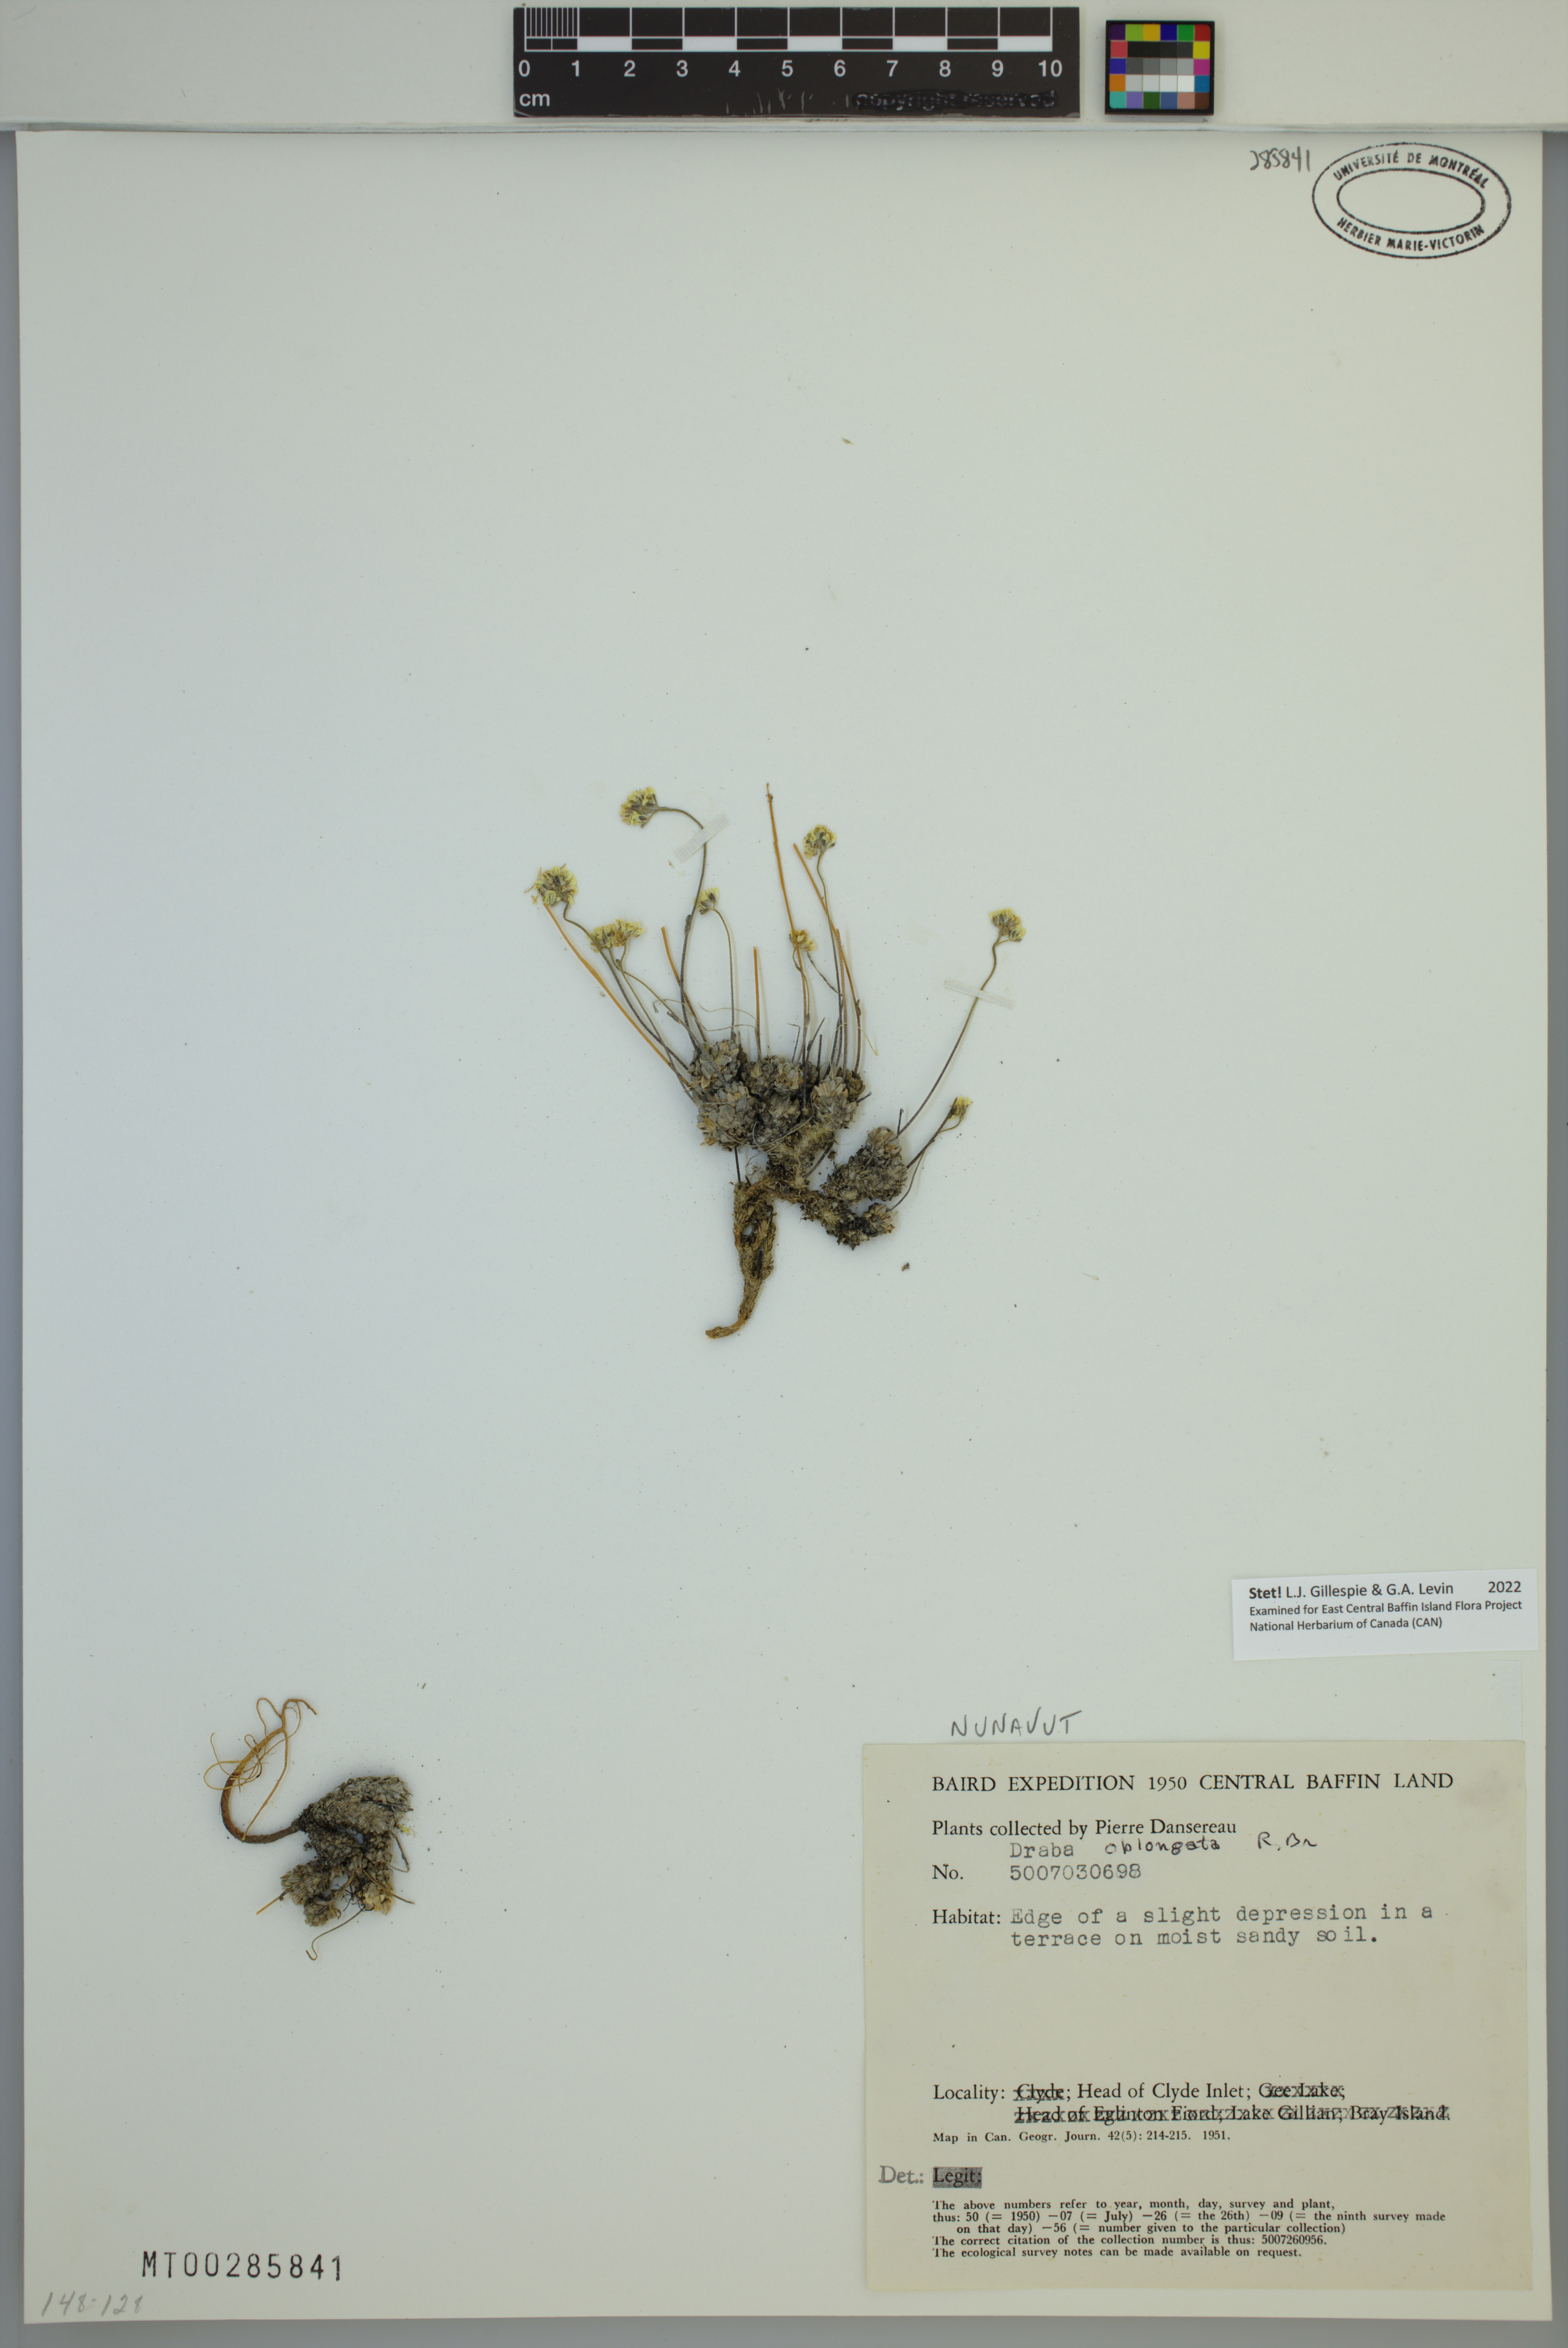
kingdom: Plantae
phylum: Tracheophyta
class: Magnoliopsida
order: Brassicales
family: Brassicaceae
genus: Draba
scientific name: Draba oblongata
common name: Canadian arctic draba
